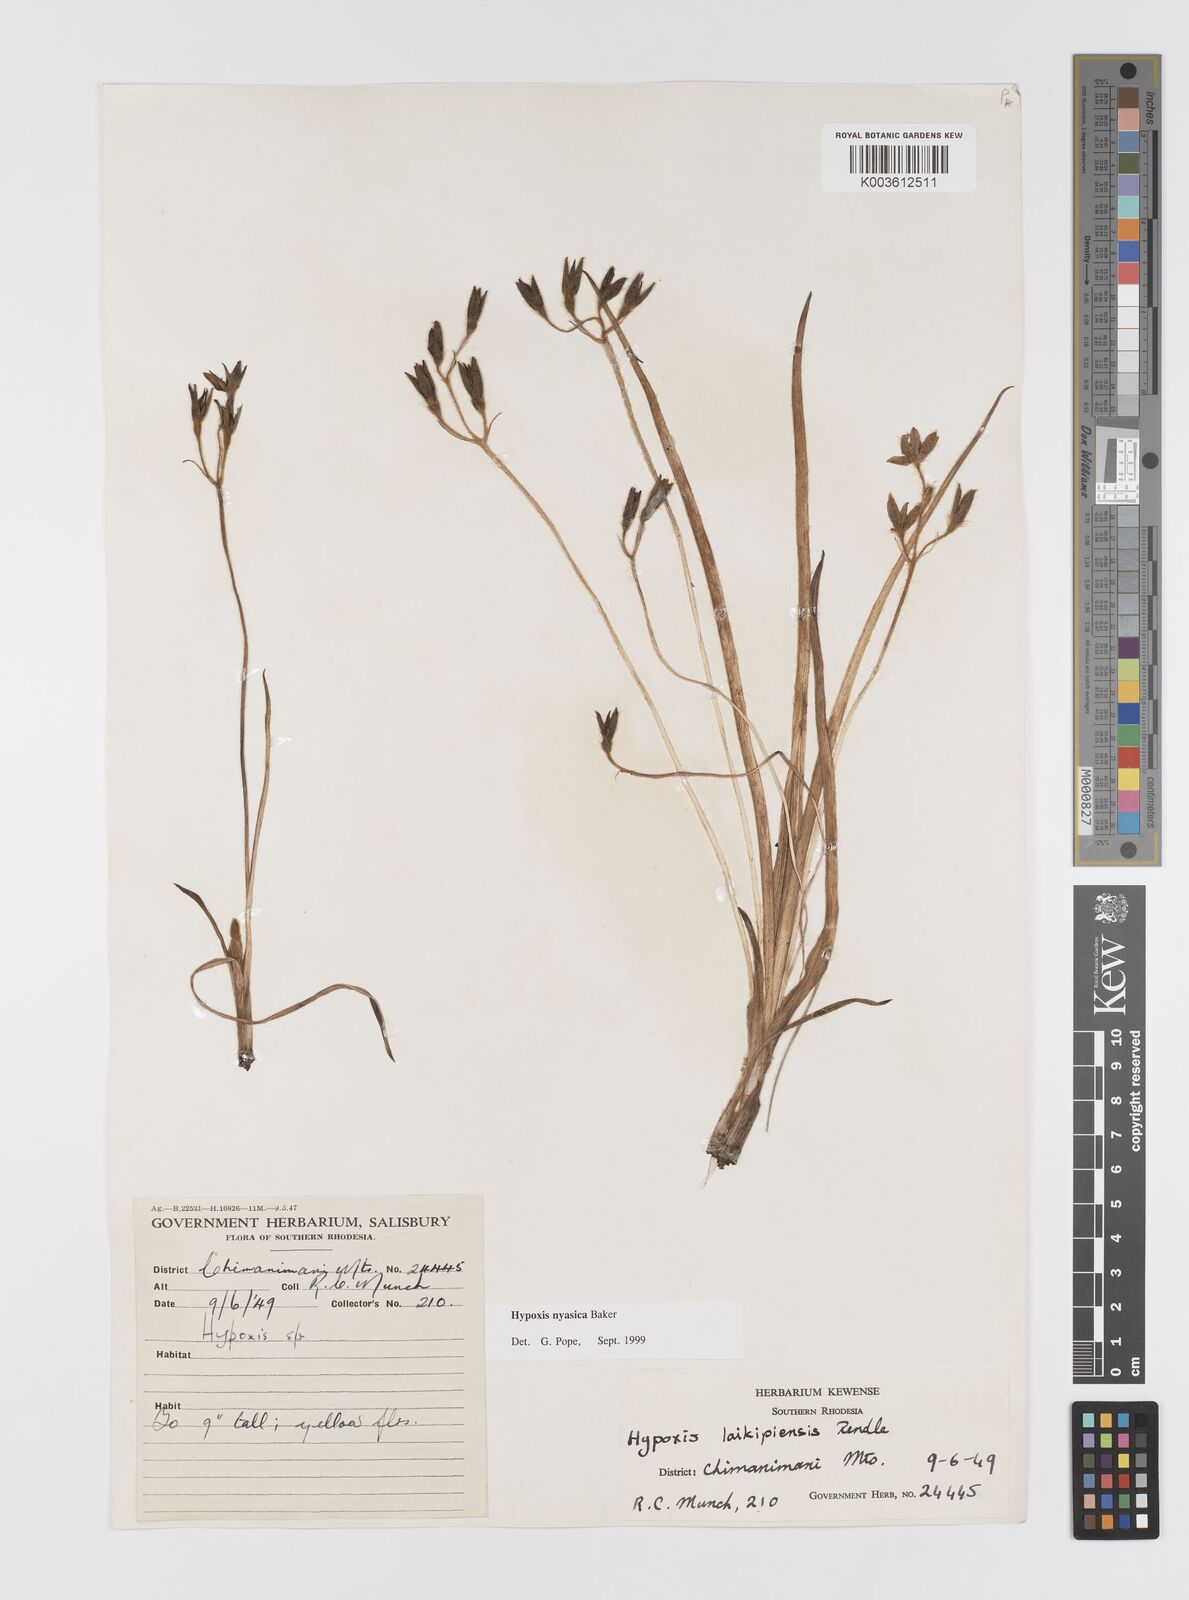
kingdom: Plantae
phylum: Tracheophyta
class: Liliopsida
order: Asparagales
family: Hypoxidaceae
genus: Hypoxis
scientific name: Hypoxis nyasica
